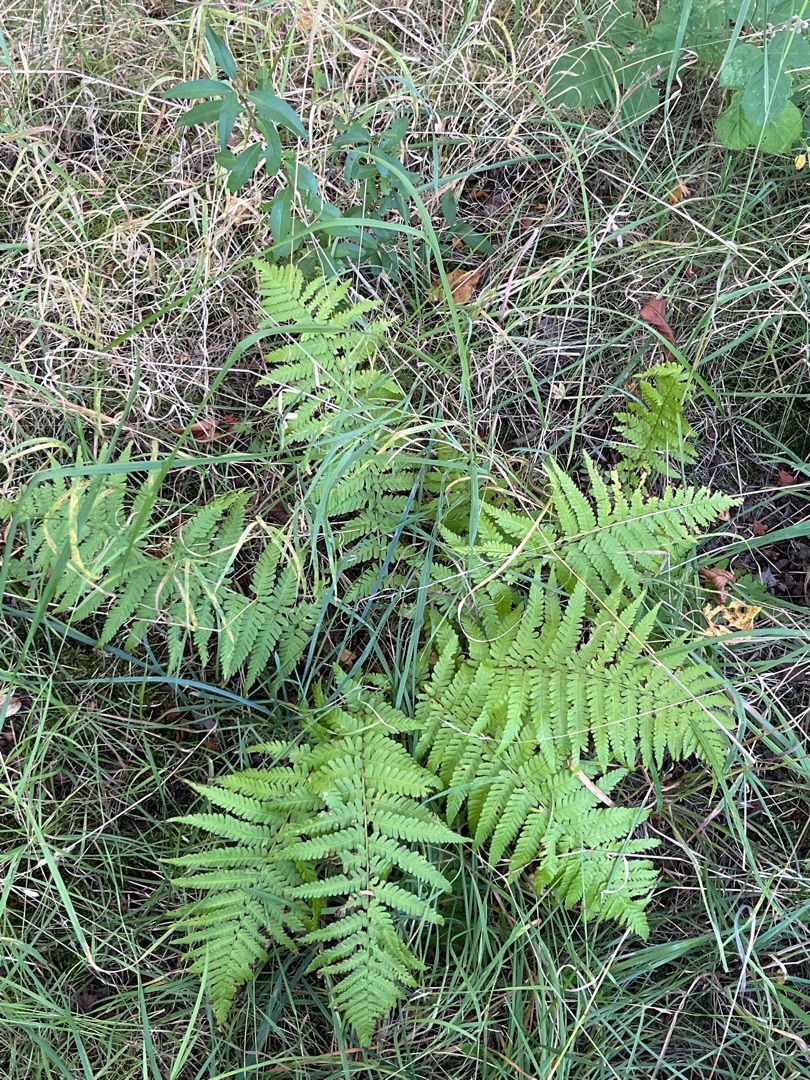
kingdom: Plantae
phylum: Tracheophyta
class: Polypodiopsida
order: Polypodiales
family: Dryopteridaceae
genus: Dryopteris
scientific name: Dryopteris filix-mas
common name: Almindelig mangeløv
